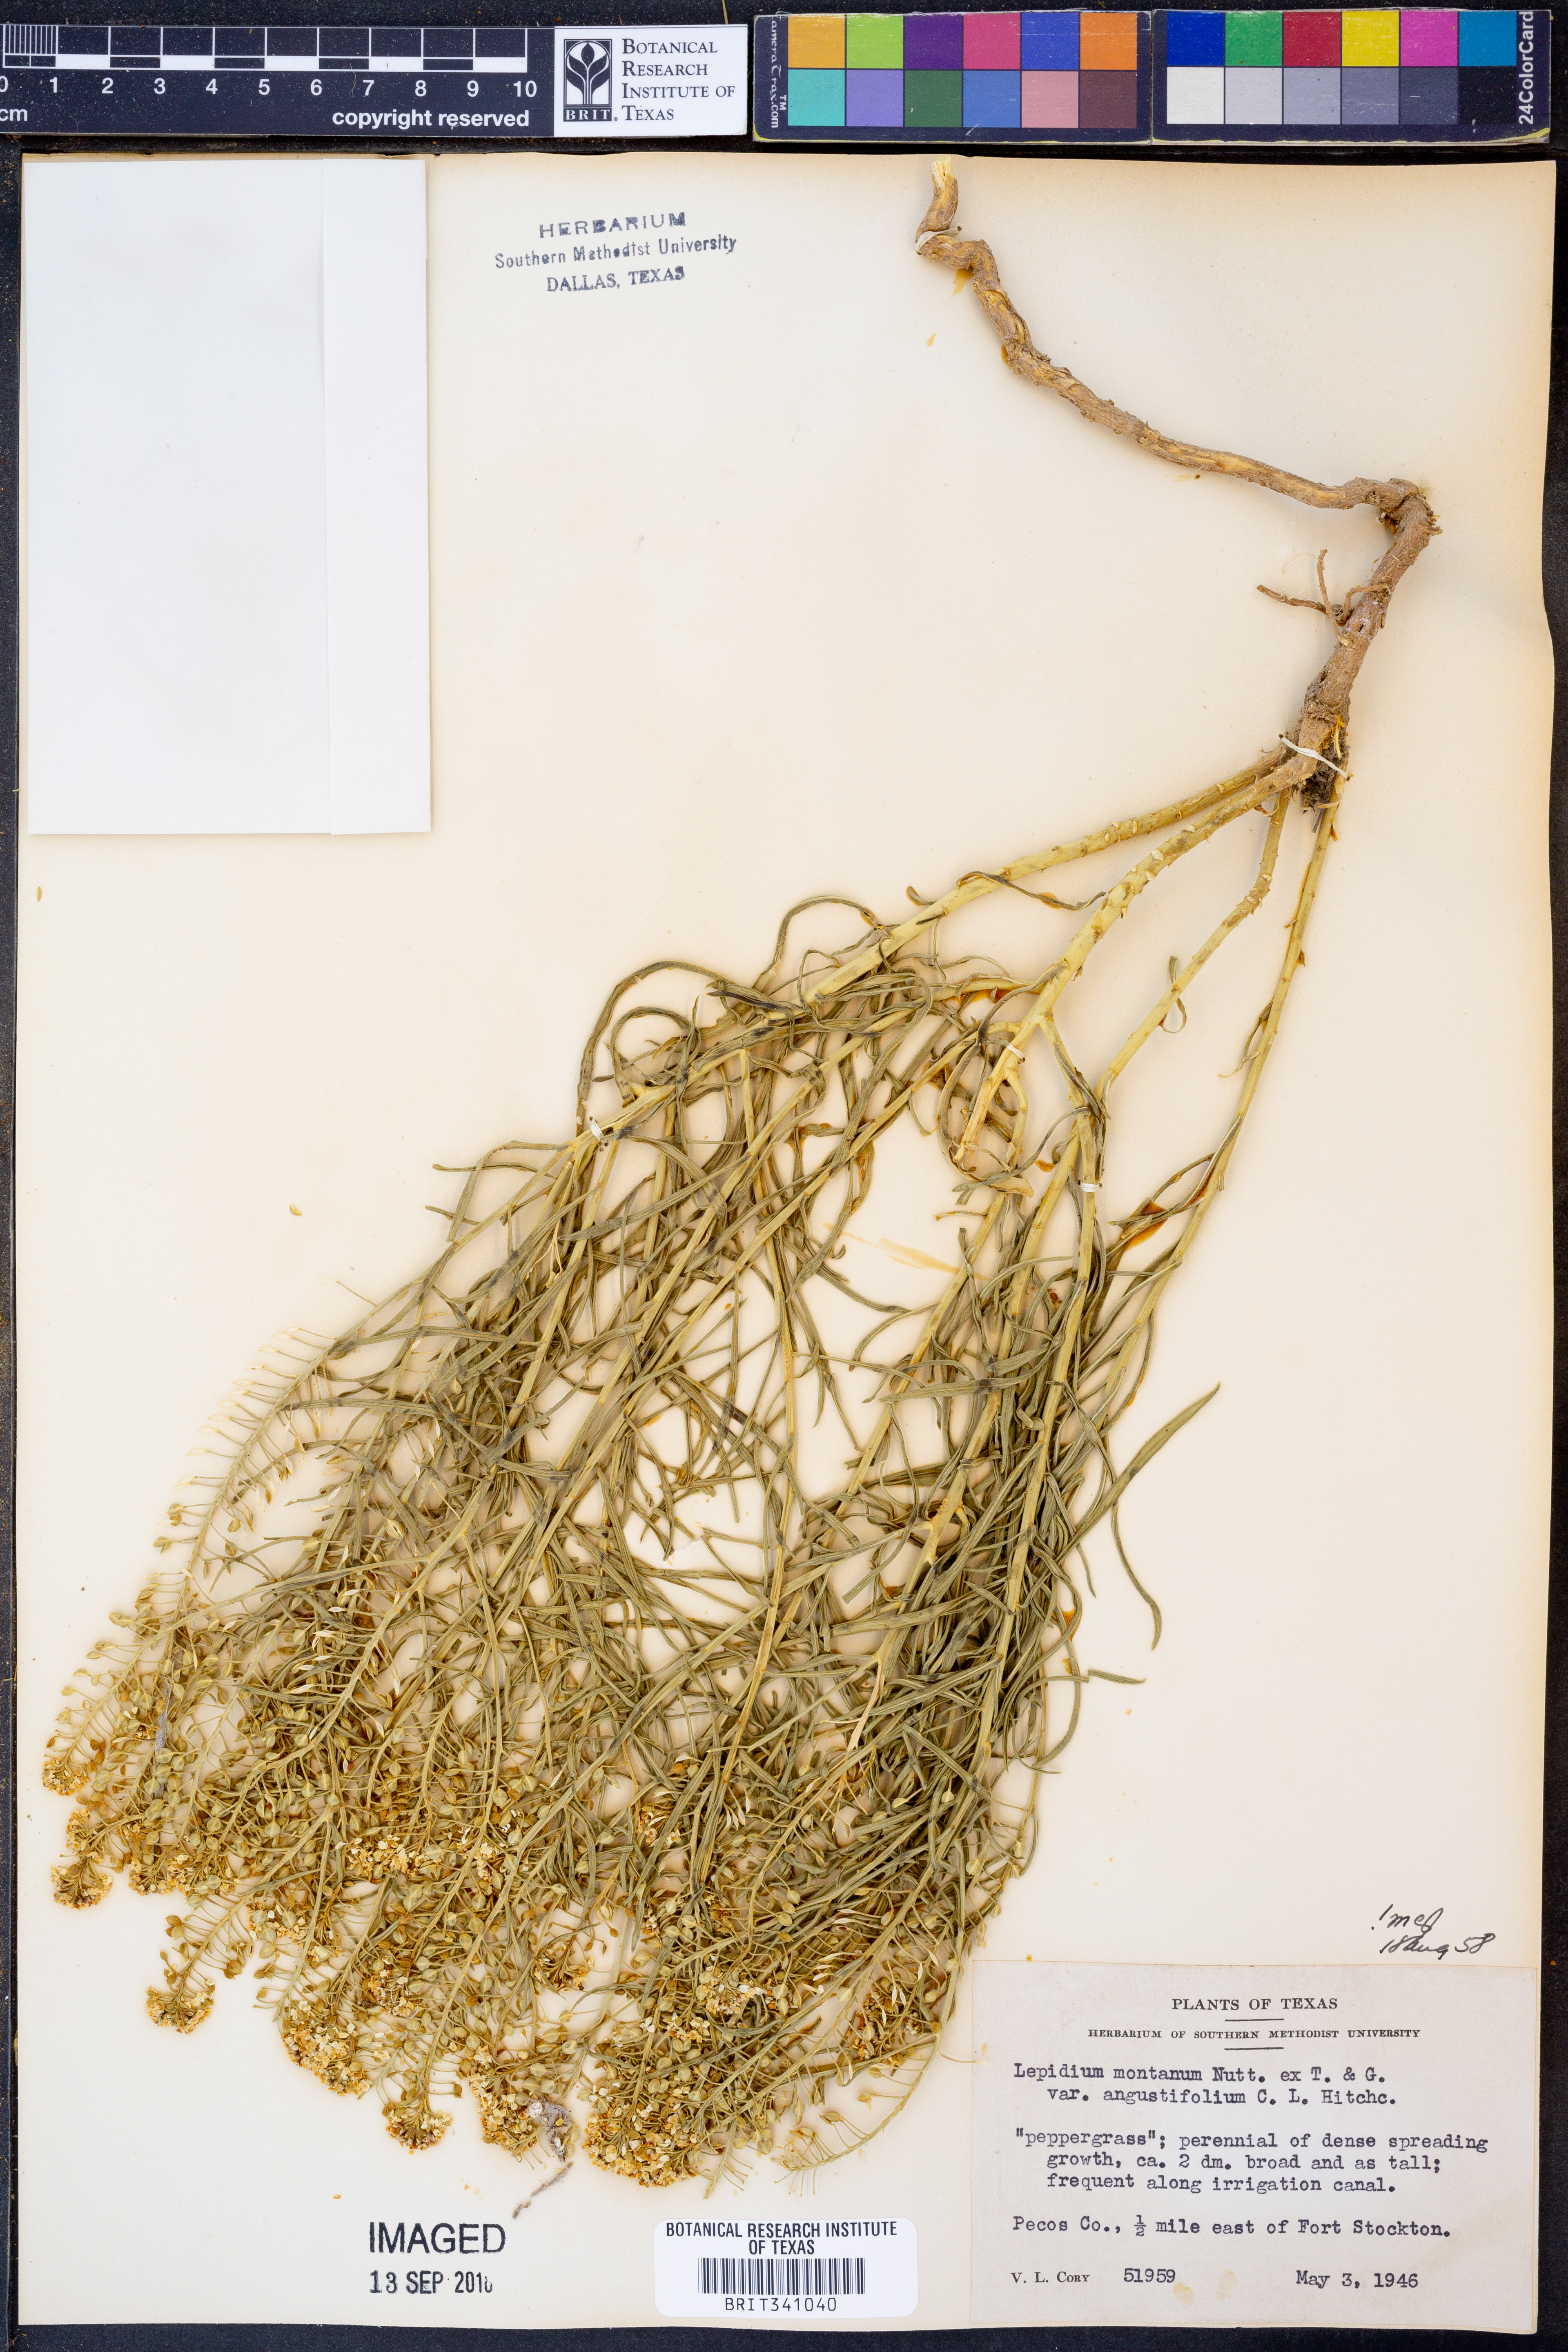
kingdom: Plantae
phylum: Tracheophyta
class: Magnoliopsida
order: Brassicales
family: Brassicaceae
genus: Lepidium
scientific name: Lepidium alyssoides
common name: Mesa pepperweed
